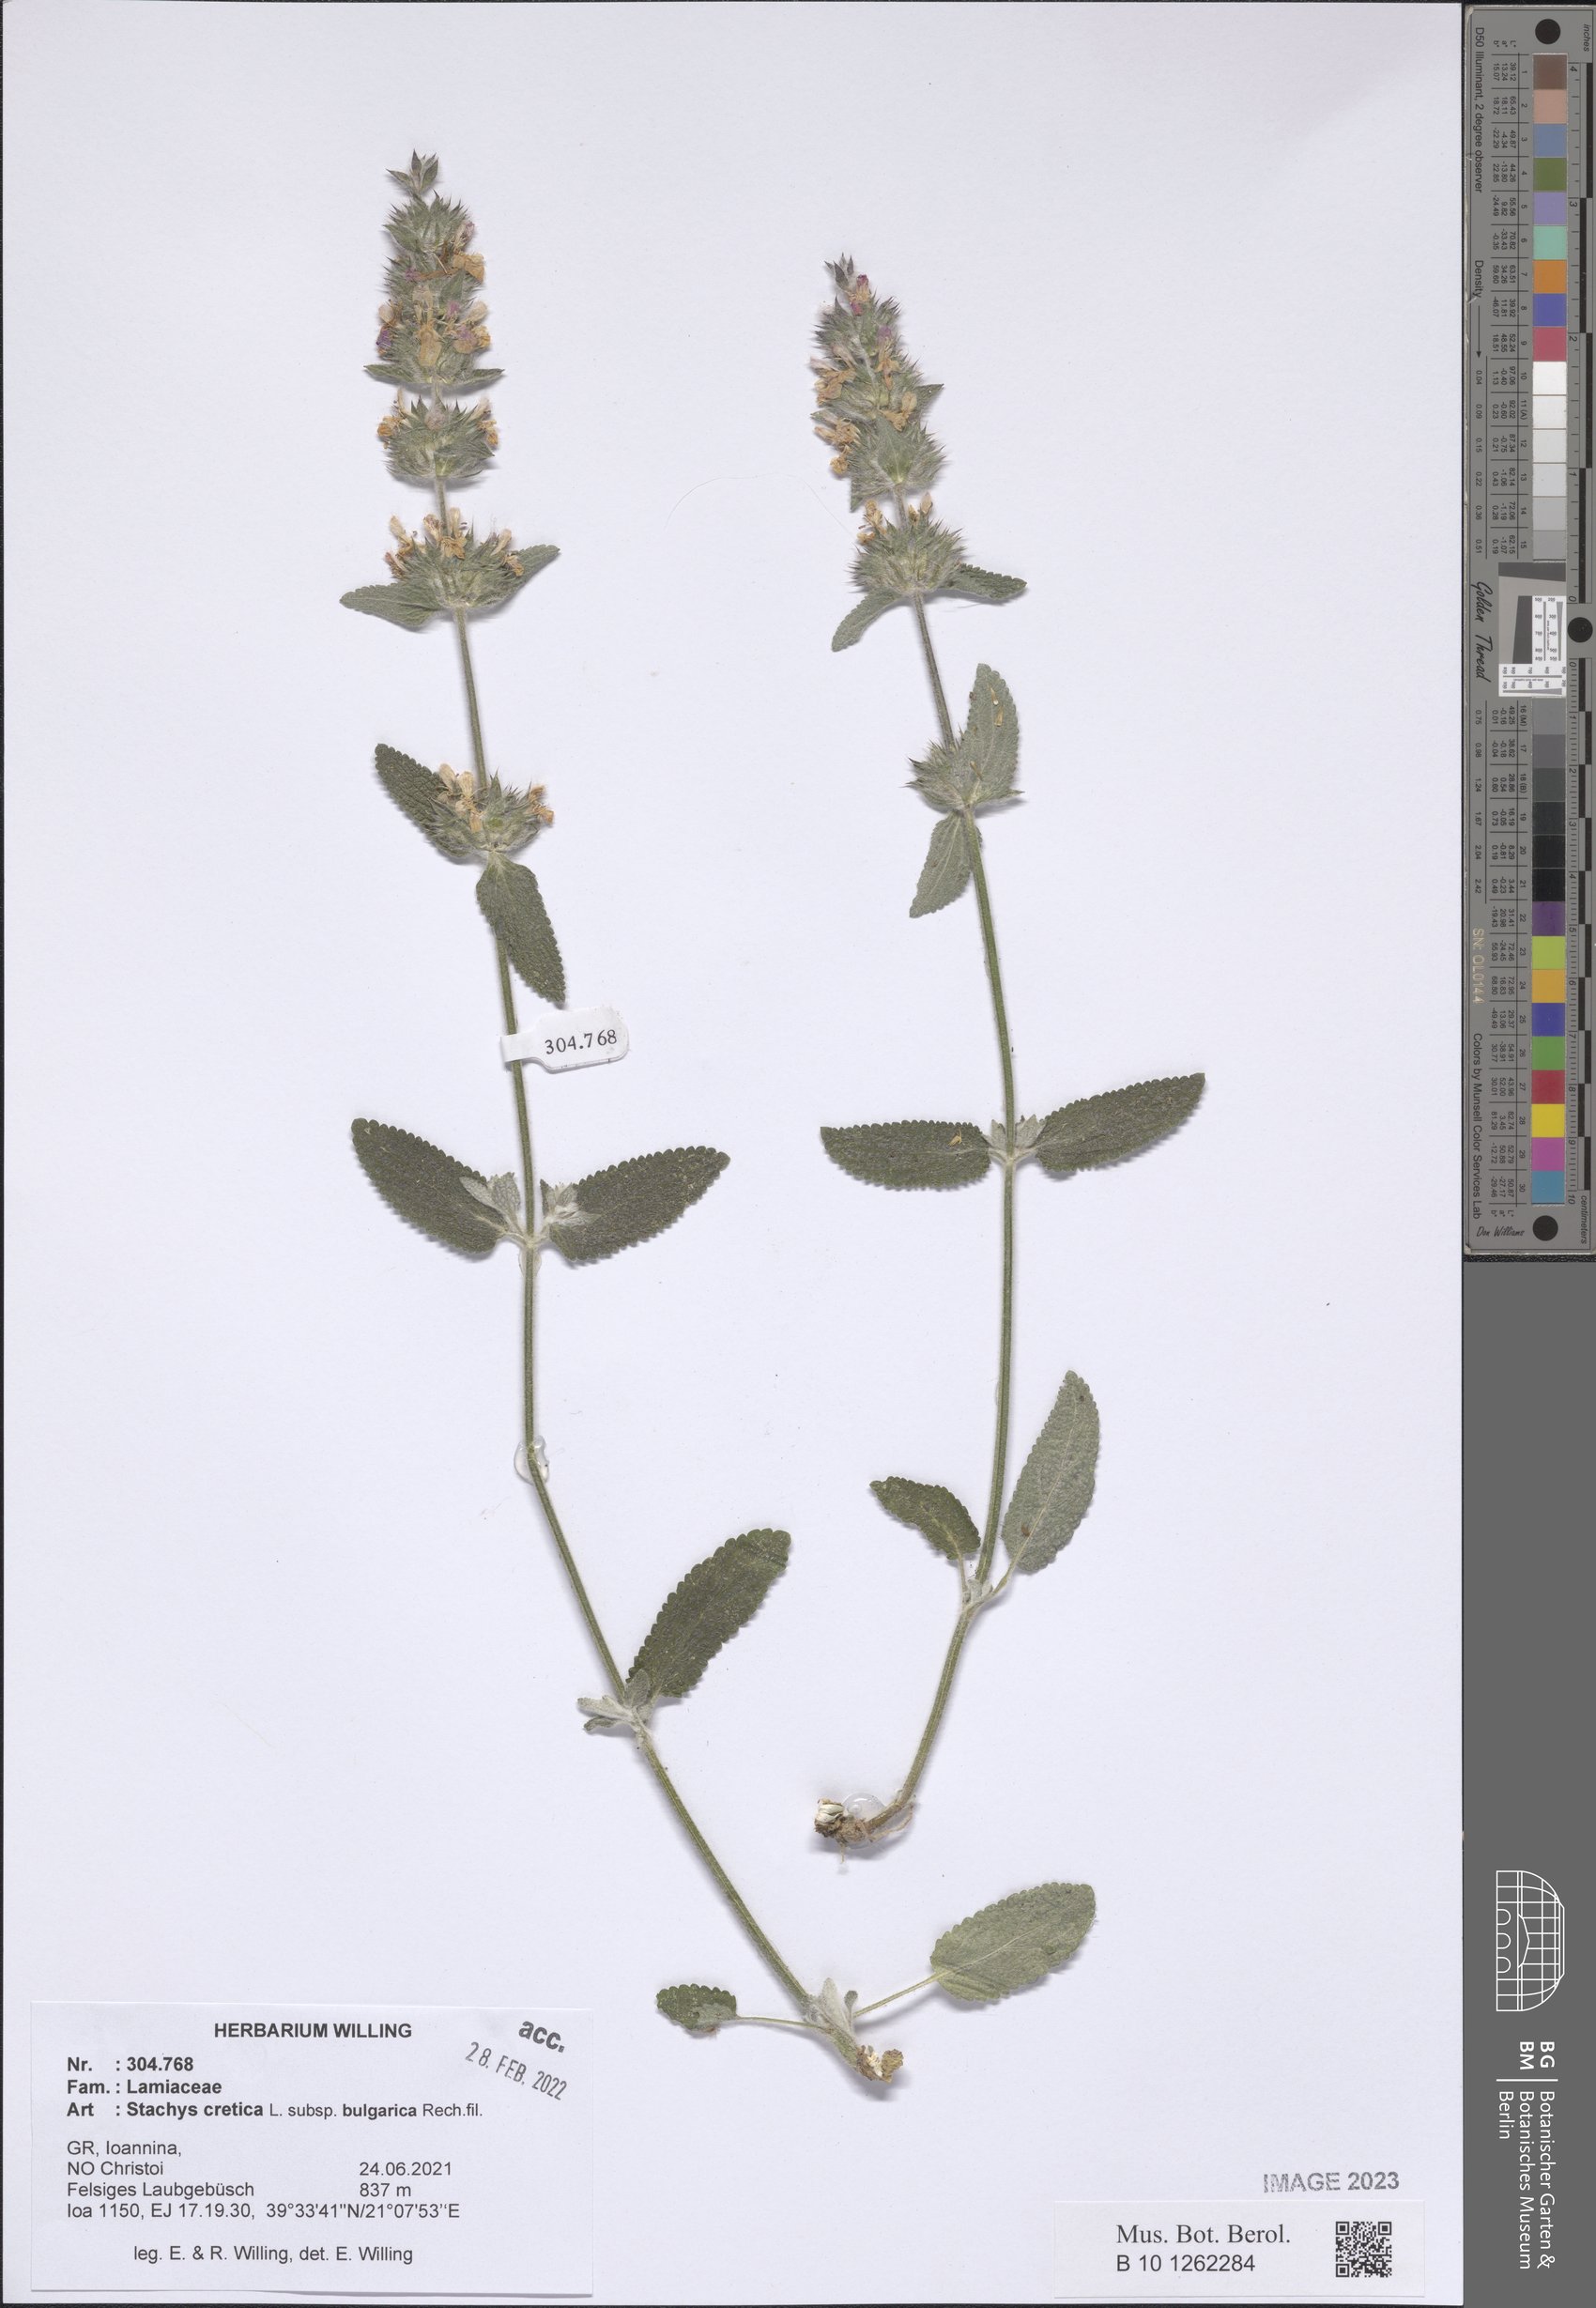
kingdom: Plantae
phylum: Tracheophyta
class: Magnoliopsida
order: Lamiales
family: Lamiaceae
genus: Stachys
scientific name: Stachys cretica
